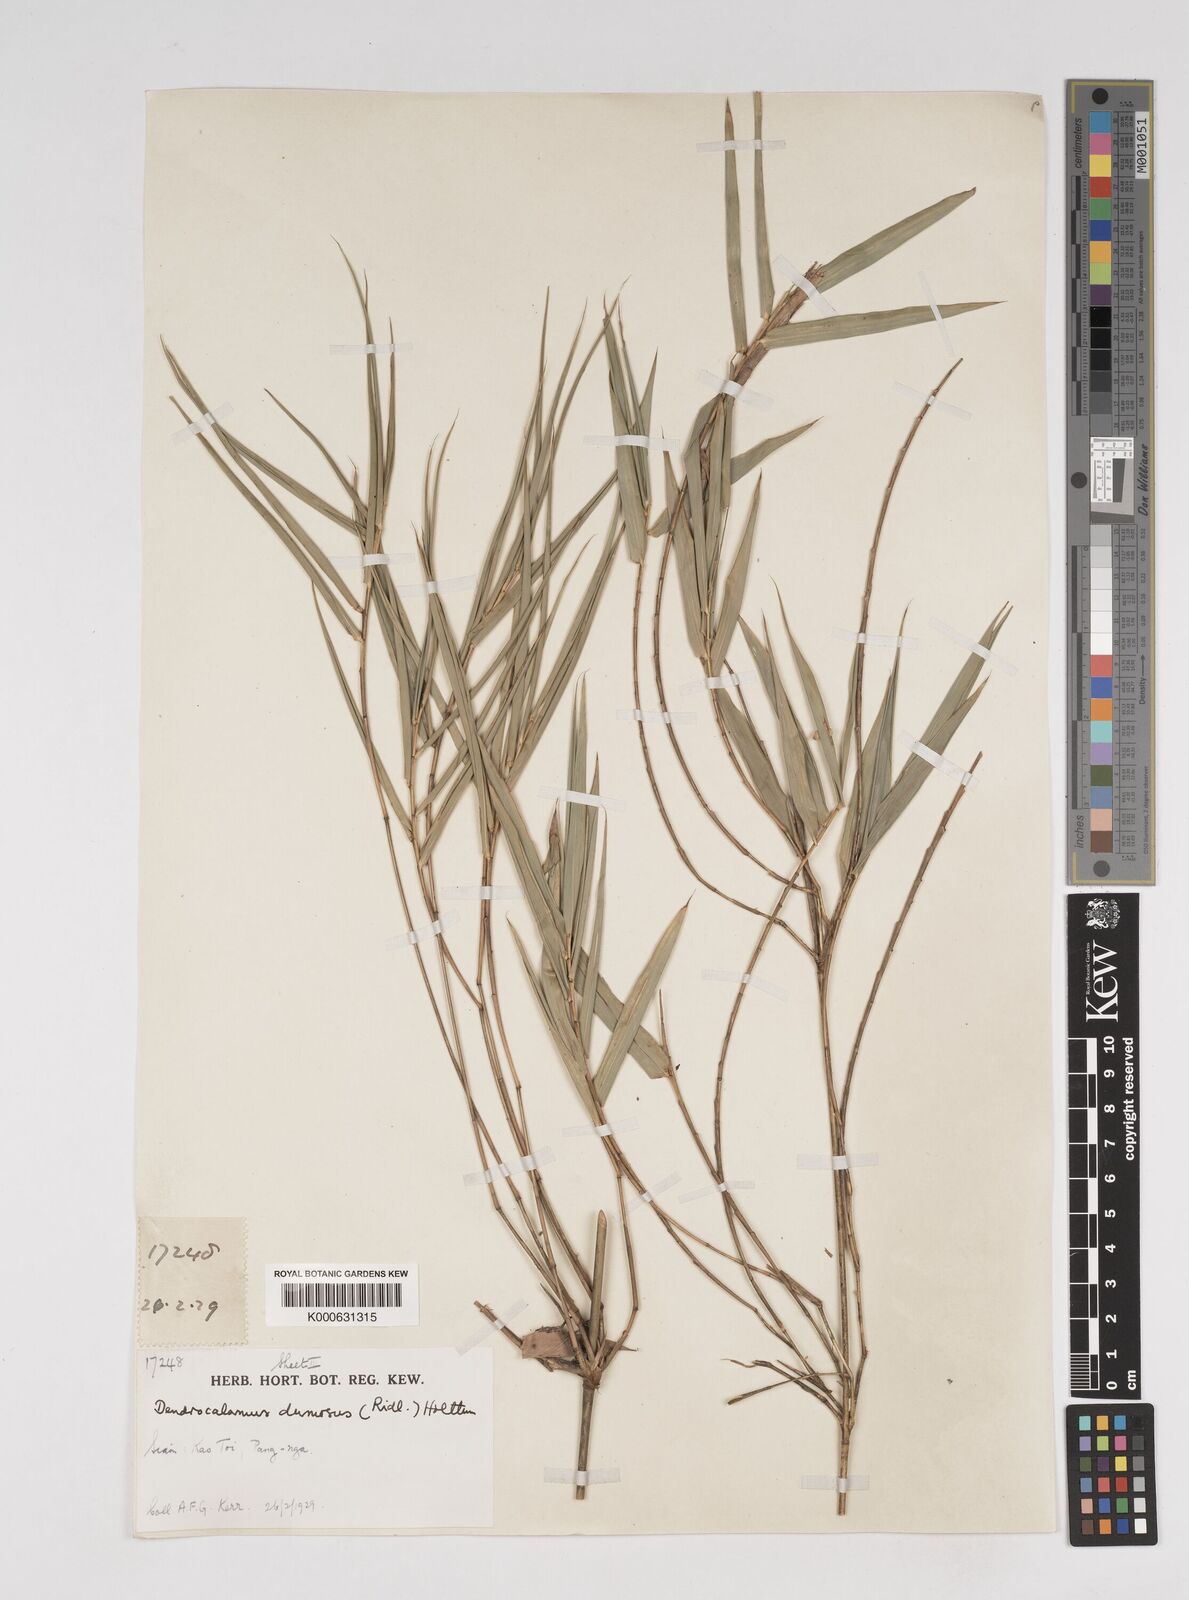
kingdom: Plantae
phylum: Tracheophyta
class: Liliopsida
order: Poales
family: Poaceae
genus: Dendrocalamus
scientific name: Dendrocalamus dumosus
